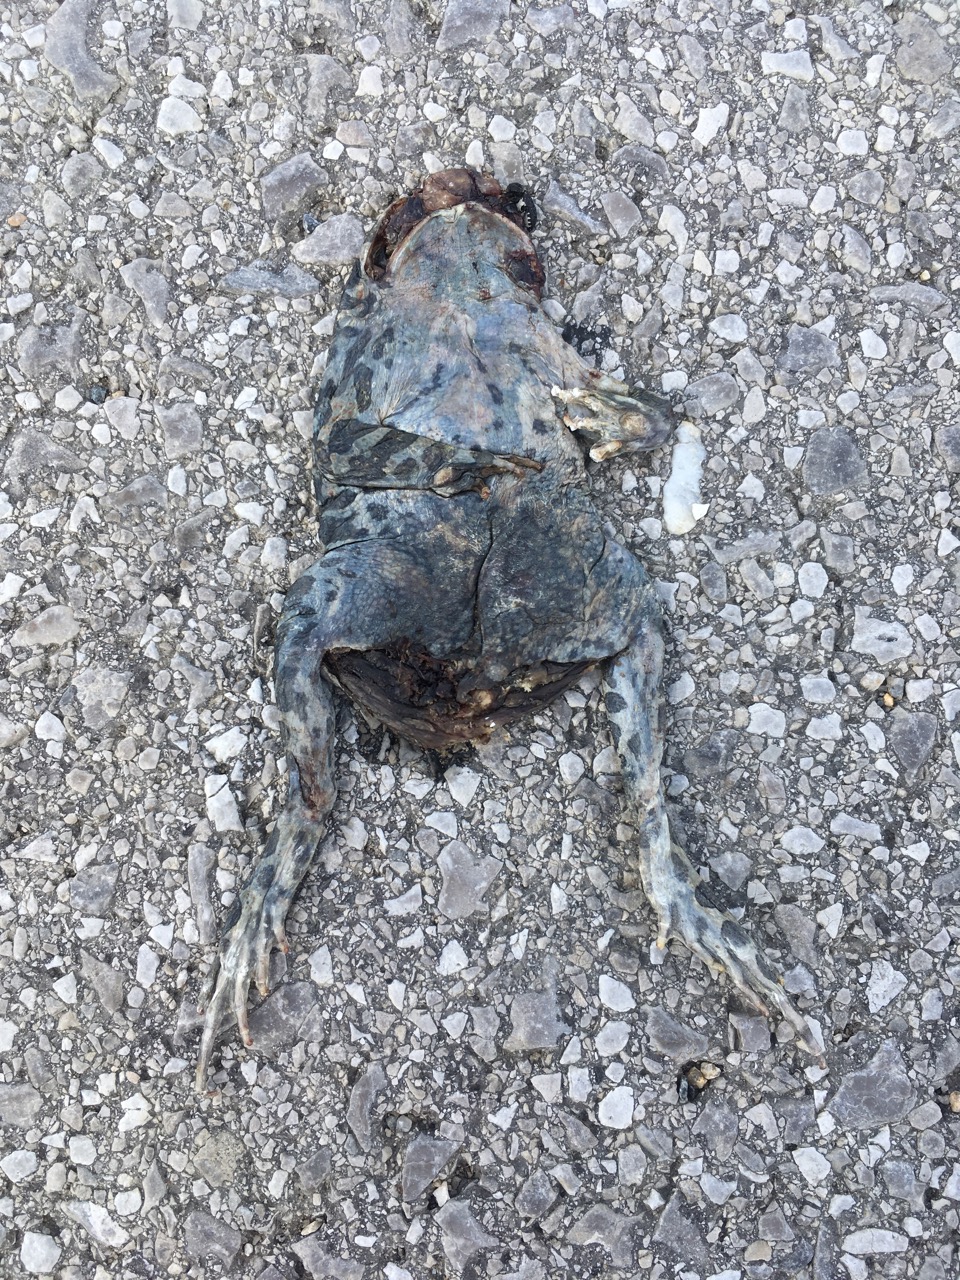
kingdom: Animalia
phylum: Chordata
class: Amphibia
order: Anura
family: Bufonidae
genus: Bufotes
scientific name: Bufotes viridis
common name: European green toad
